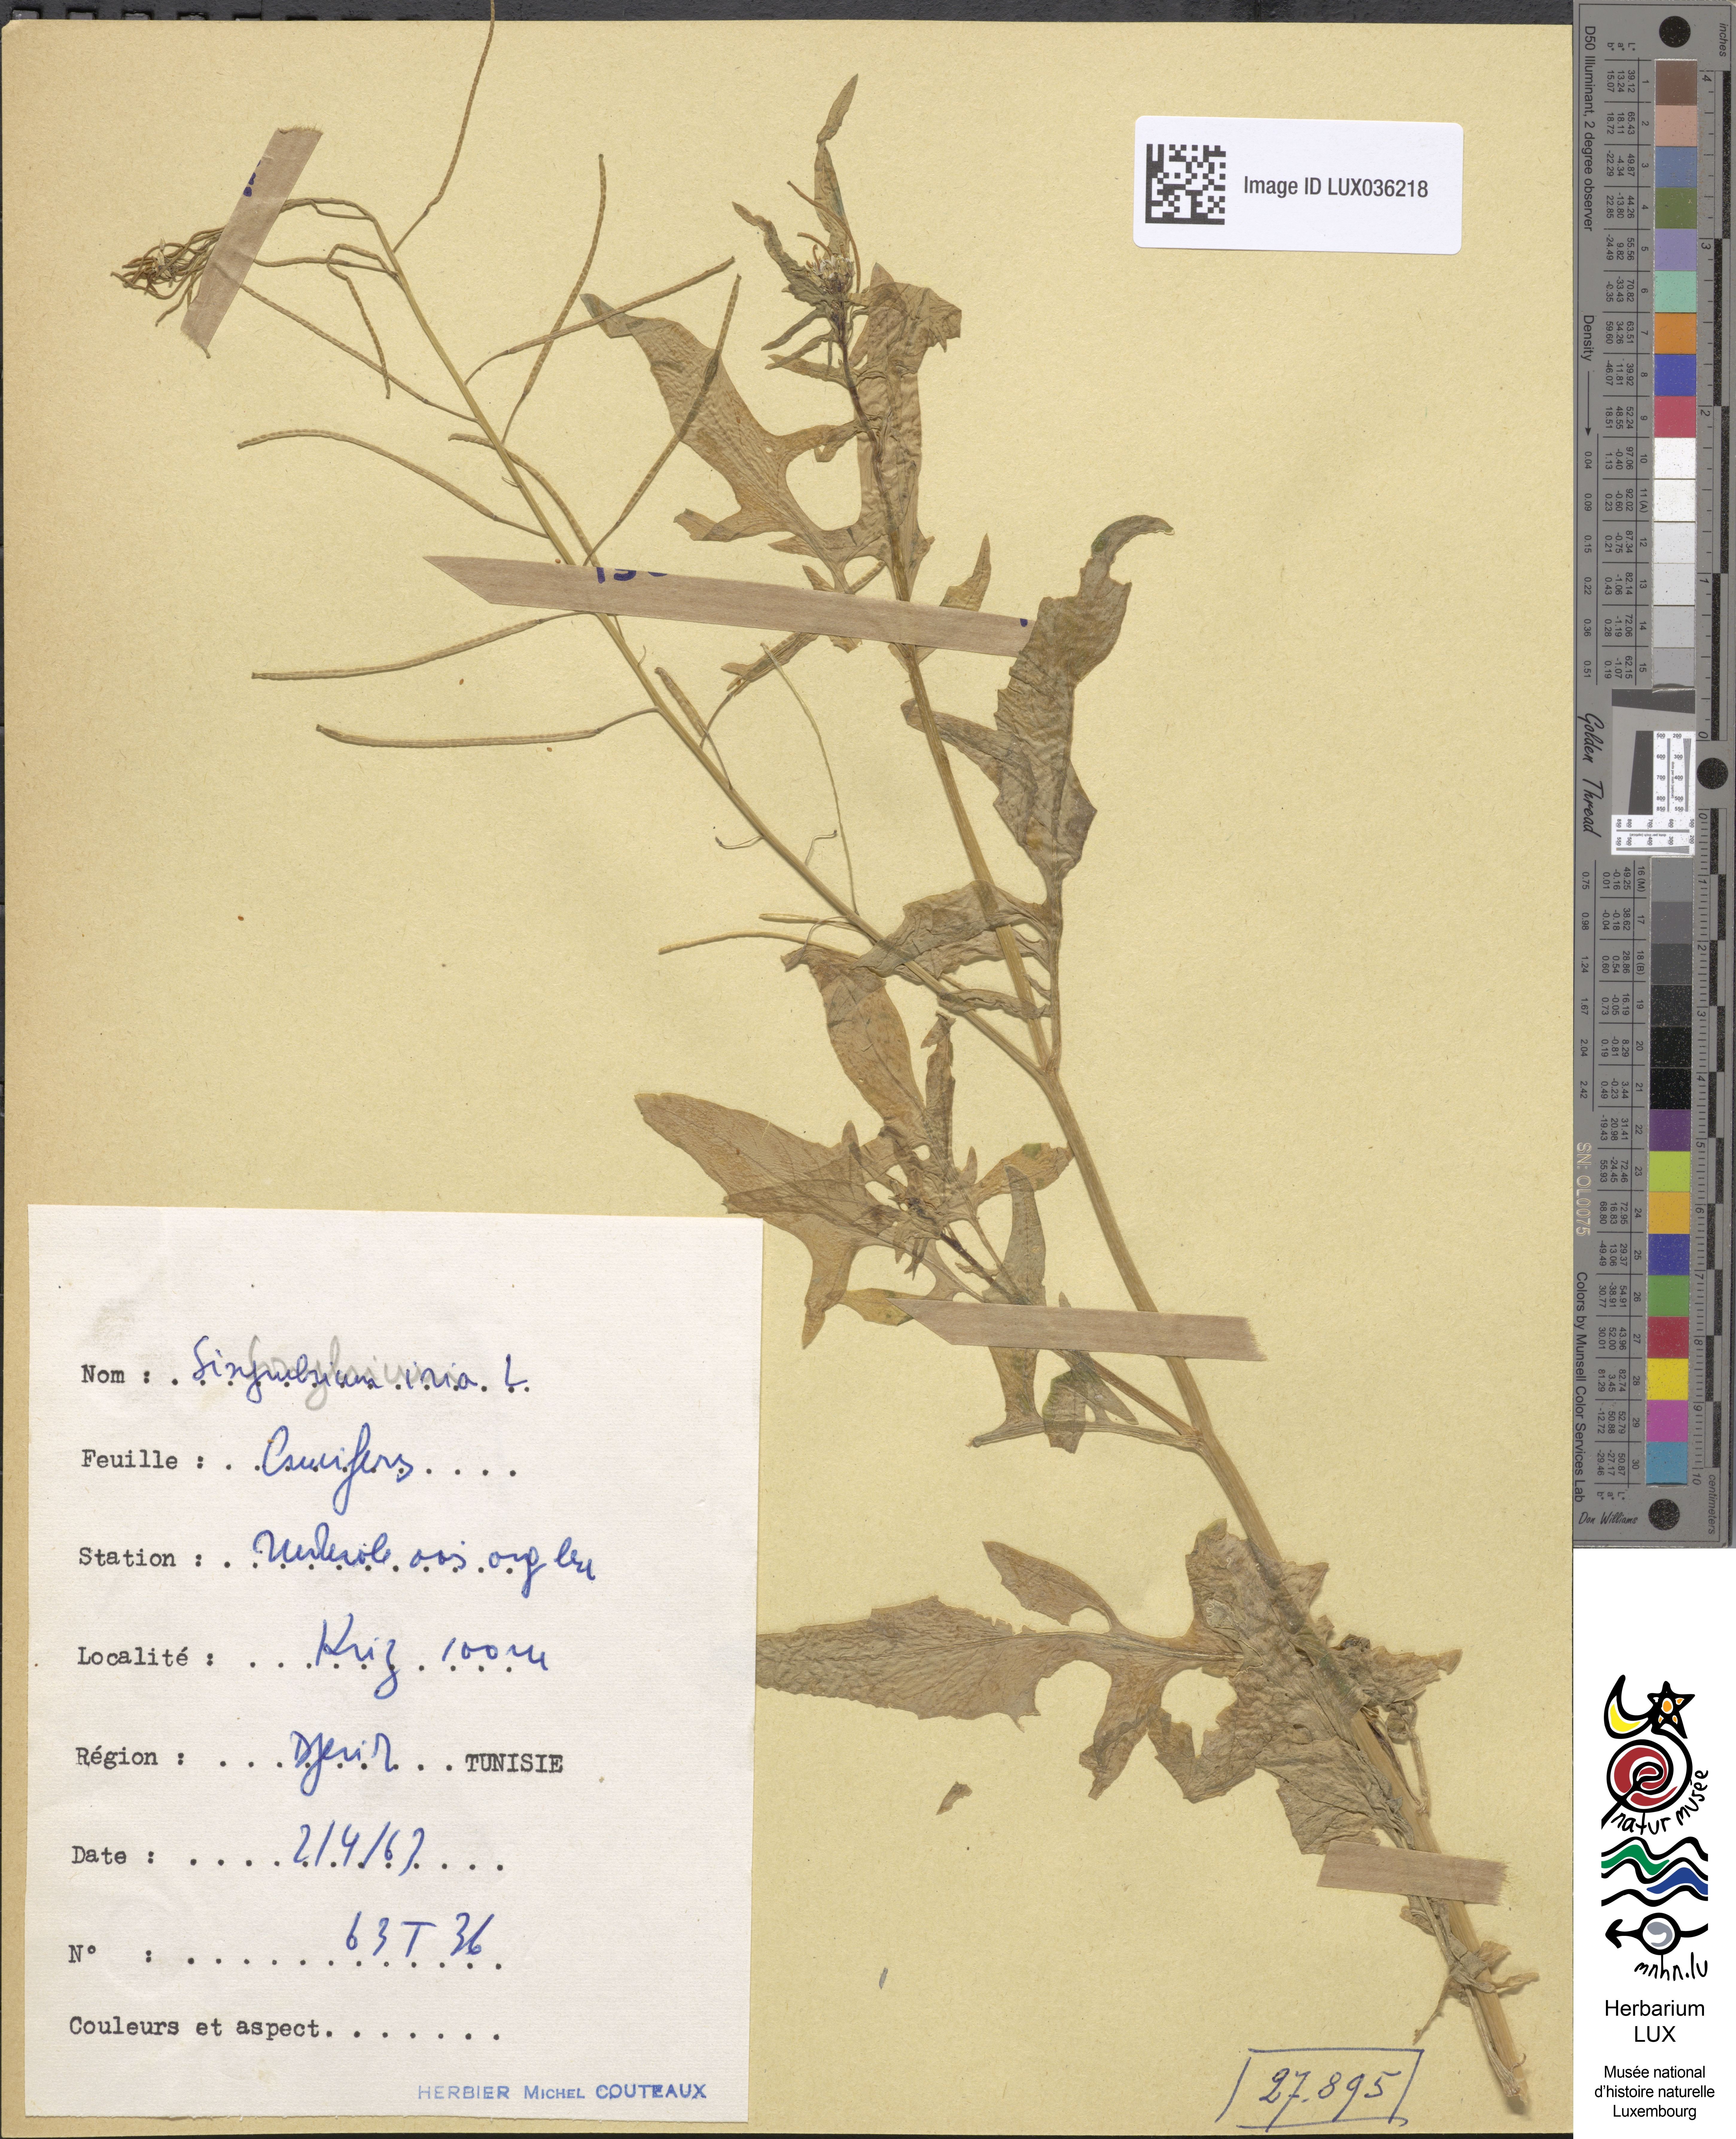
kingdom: Plantae
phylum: Tracheophyta
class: Magnoliopsida
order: Brassicales
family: Brassicaceae
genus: Sisymbrium
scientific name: Sisymbrium irio
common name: London rocket
